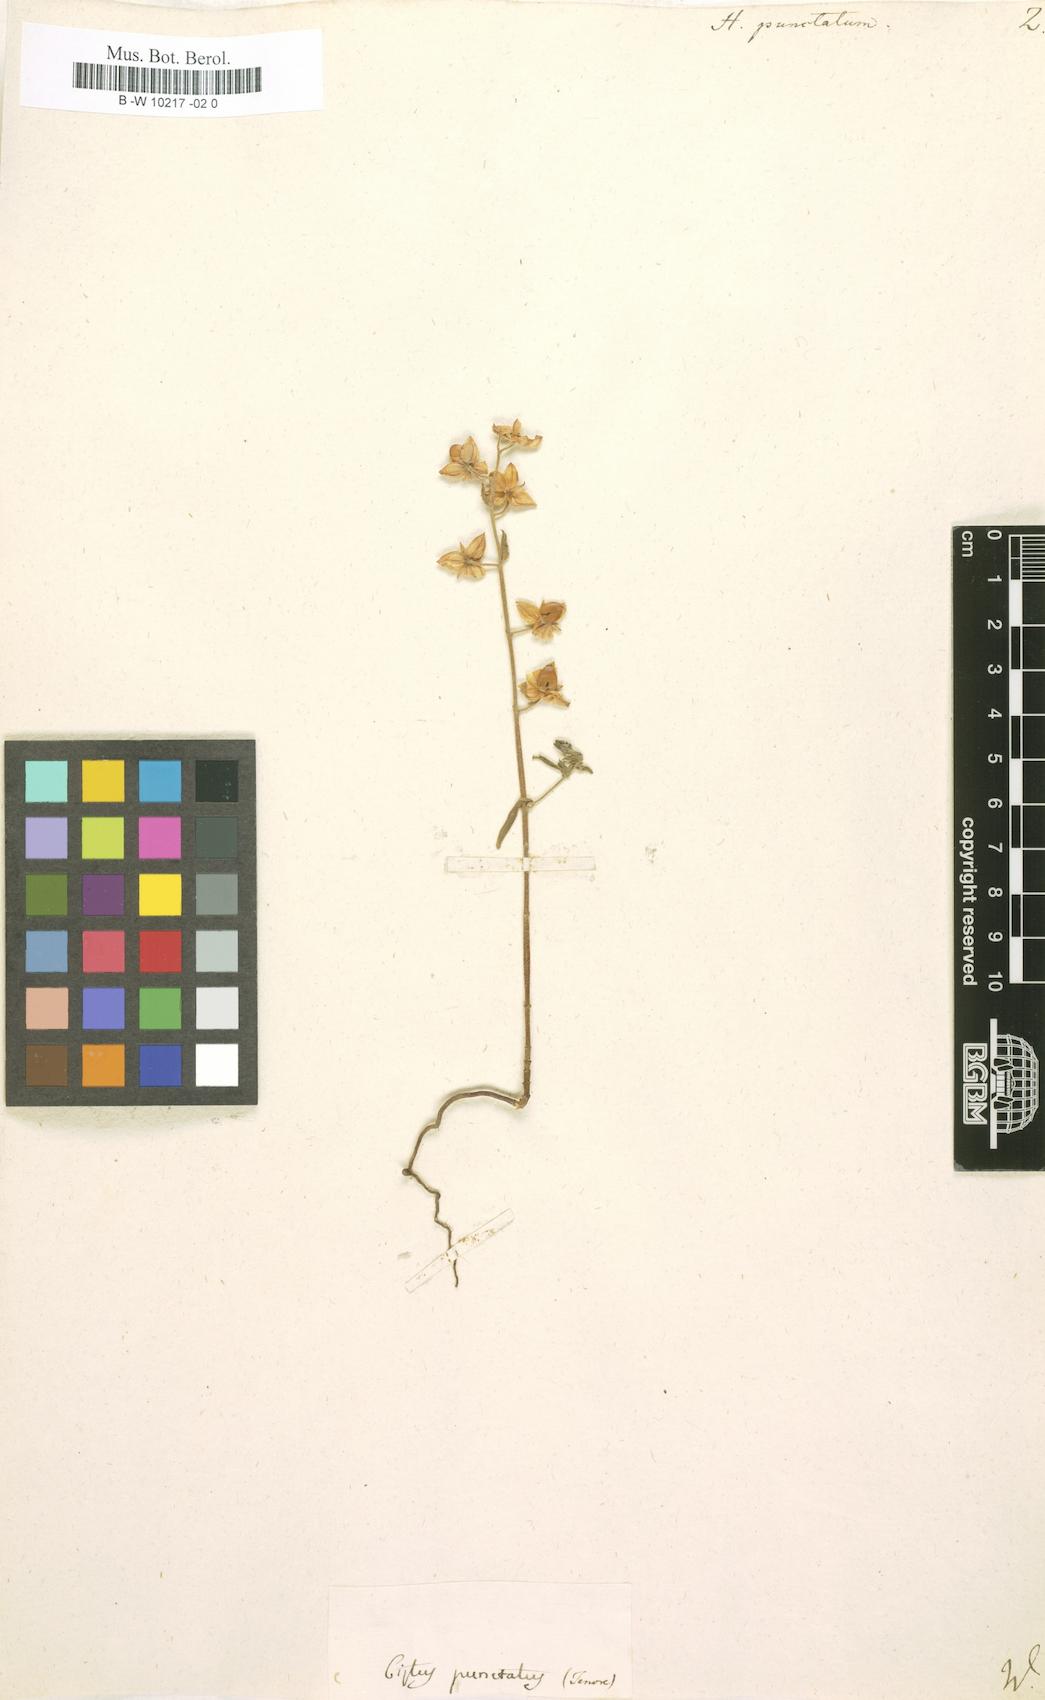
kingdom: Plantae
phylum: Tracheophyta
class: Magnoliopsida
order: Malvales
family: Cistaceae
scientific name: Cistaceae
